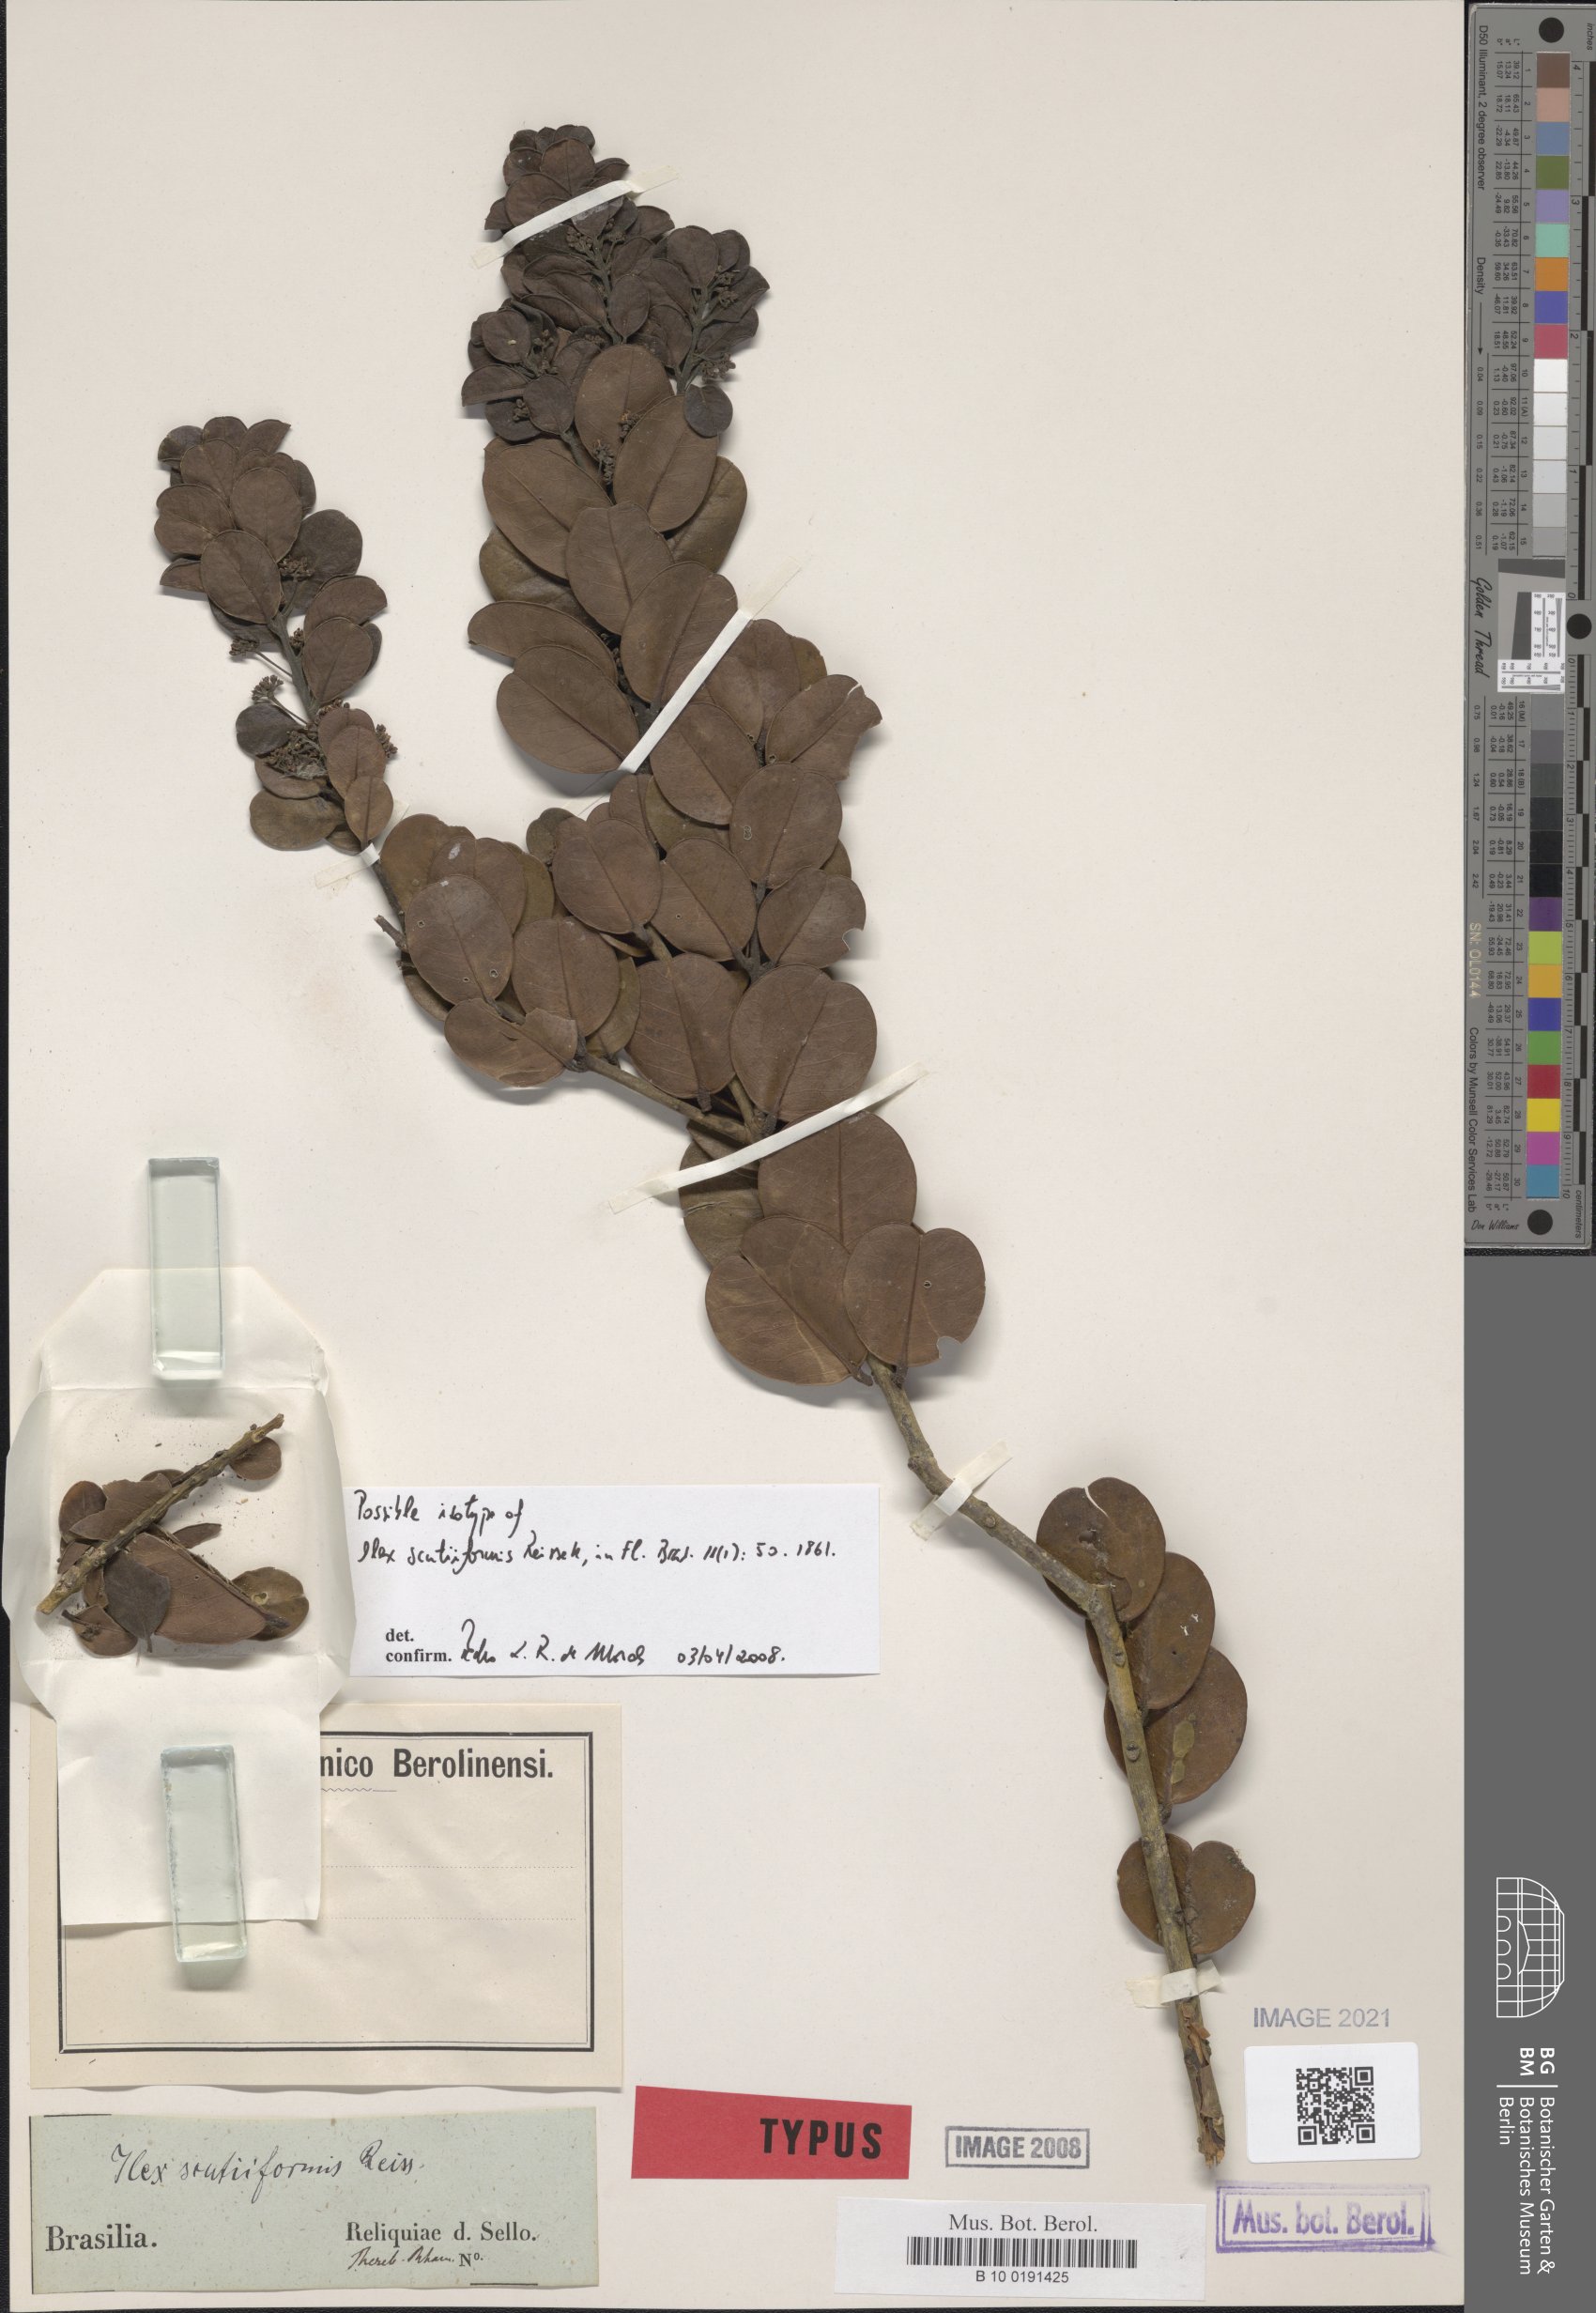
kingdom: Plantae
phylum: Tracheophyta
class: Magnoliopsida
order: Aquifoliales
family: Aquifoliaceae
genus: Ilex
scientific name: Ilex scutiiformis
